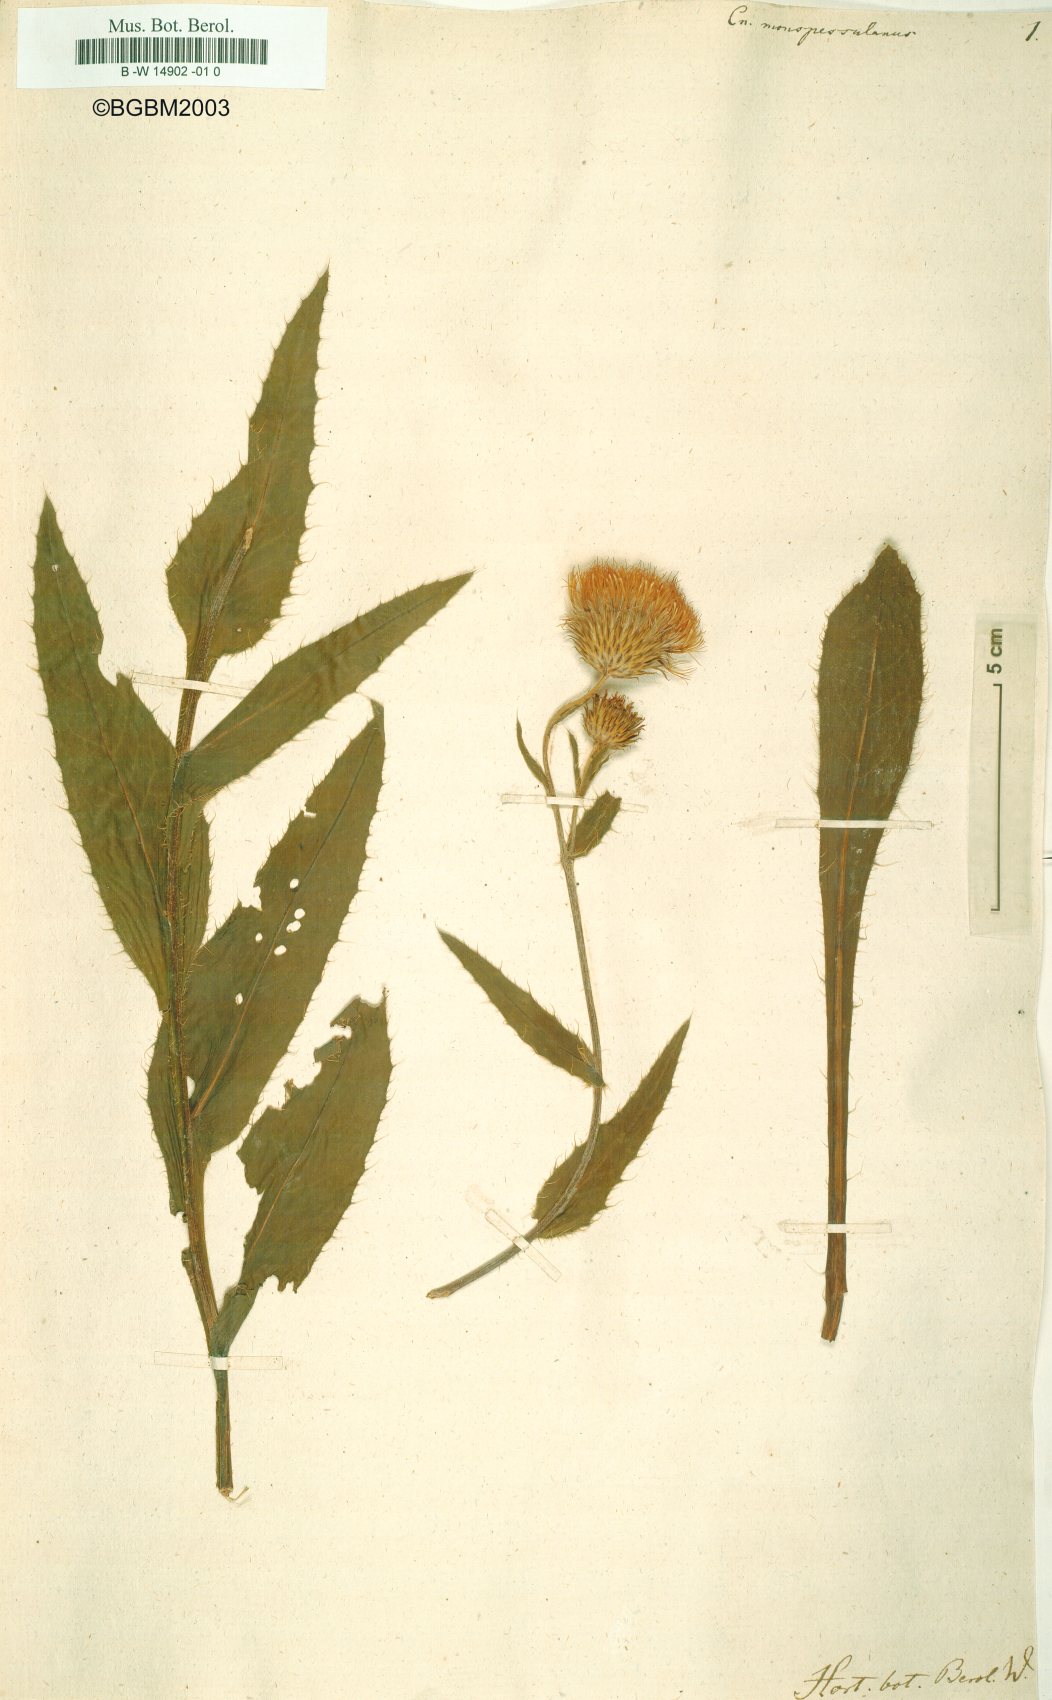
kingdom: Plantae
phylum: Tracheophyta
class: Magnoliopsida
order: Asterales
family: Asteraceae
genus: Cirsium
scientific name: Cirsium monspessulanum
